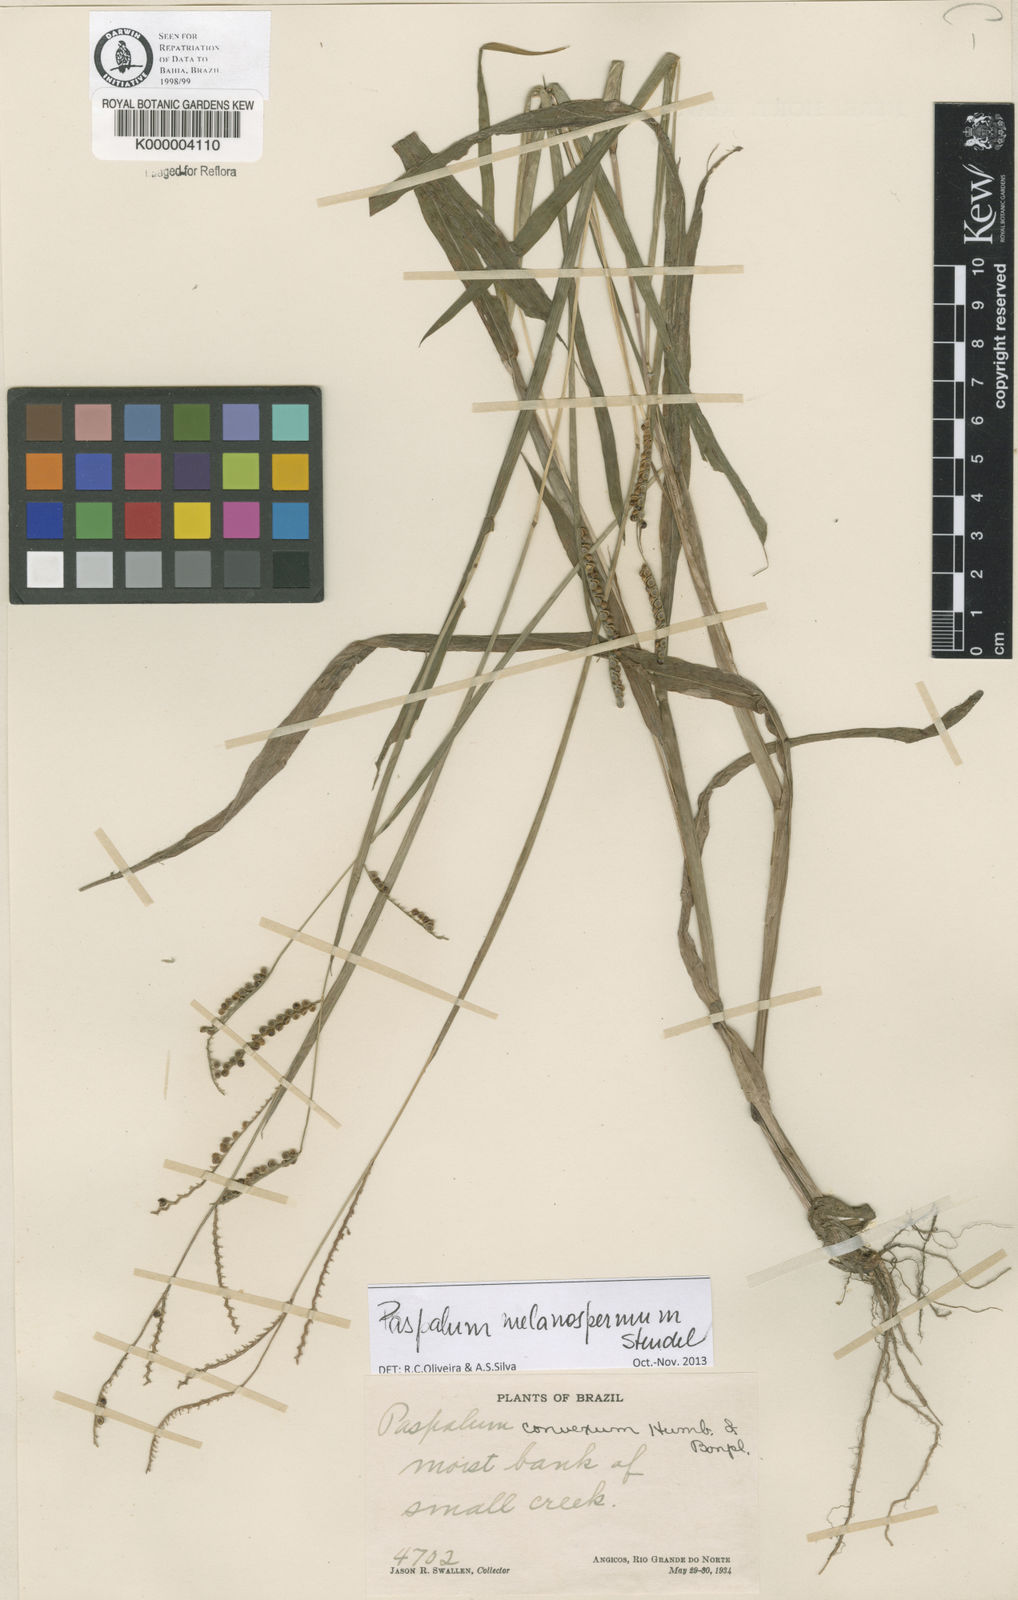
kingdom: Plantae
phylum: Tracheophyta
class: Liliopsida
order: Poales
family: Poaceae
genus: Paspalum
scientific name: Paspalum
